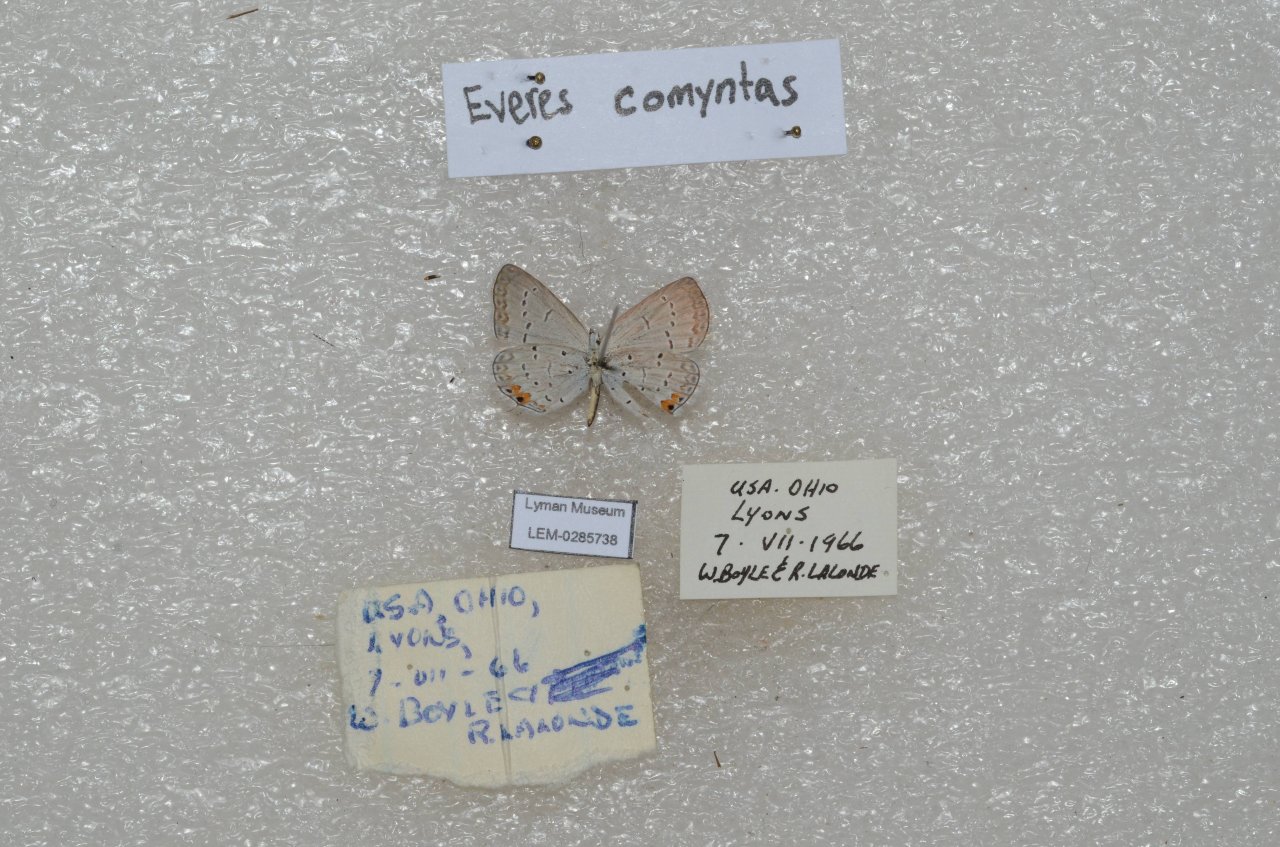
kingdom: Animalia
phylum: Arthropoda
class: Insecta
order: Lepidoptera
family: Lycaenidae
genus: Elkalyce
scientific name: Elkalyce comyntas
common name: Eastern Tailed-Blue
